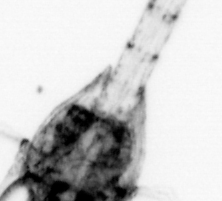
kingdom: Animalia
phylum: Arthropoda
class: Malacostraca
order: Decapoda
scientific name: Decapoda
